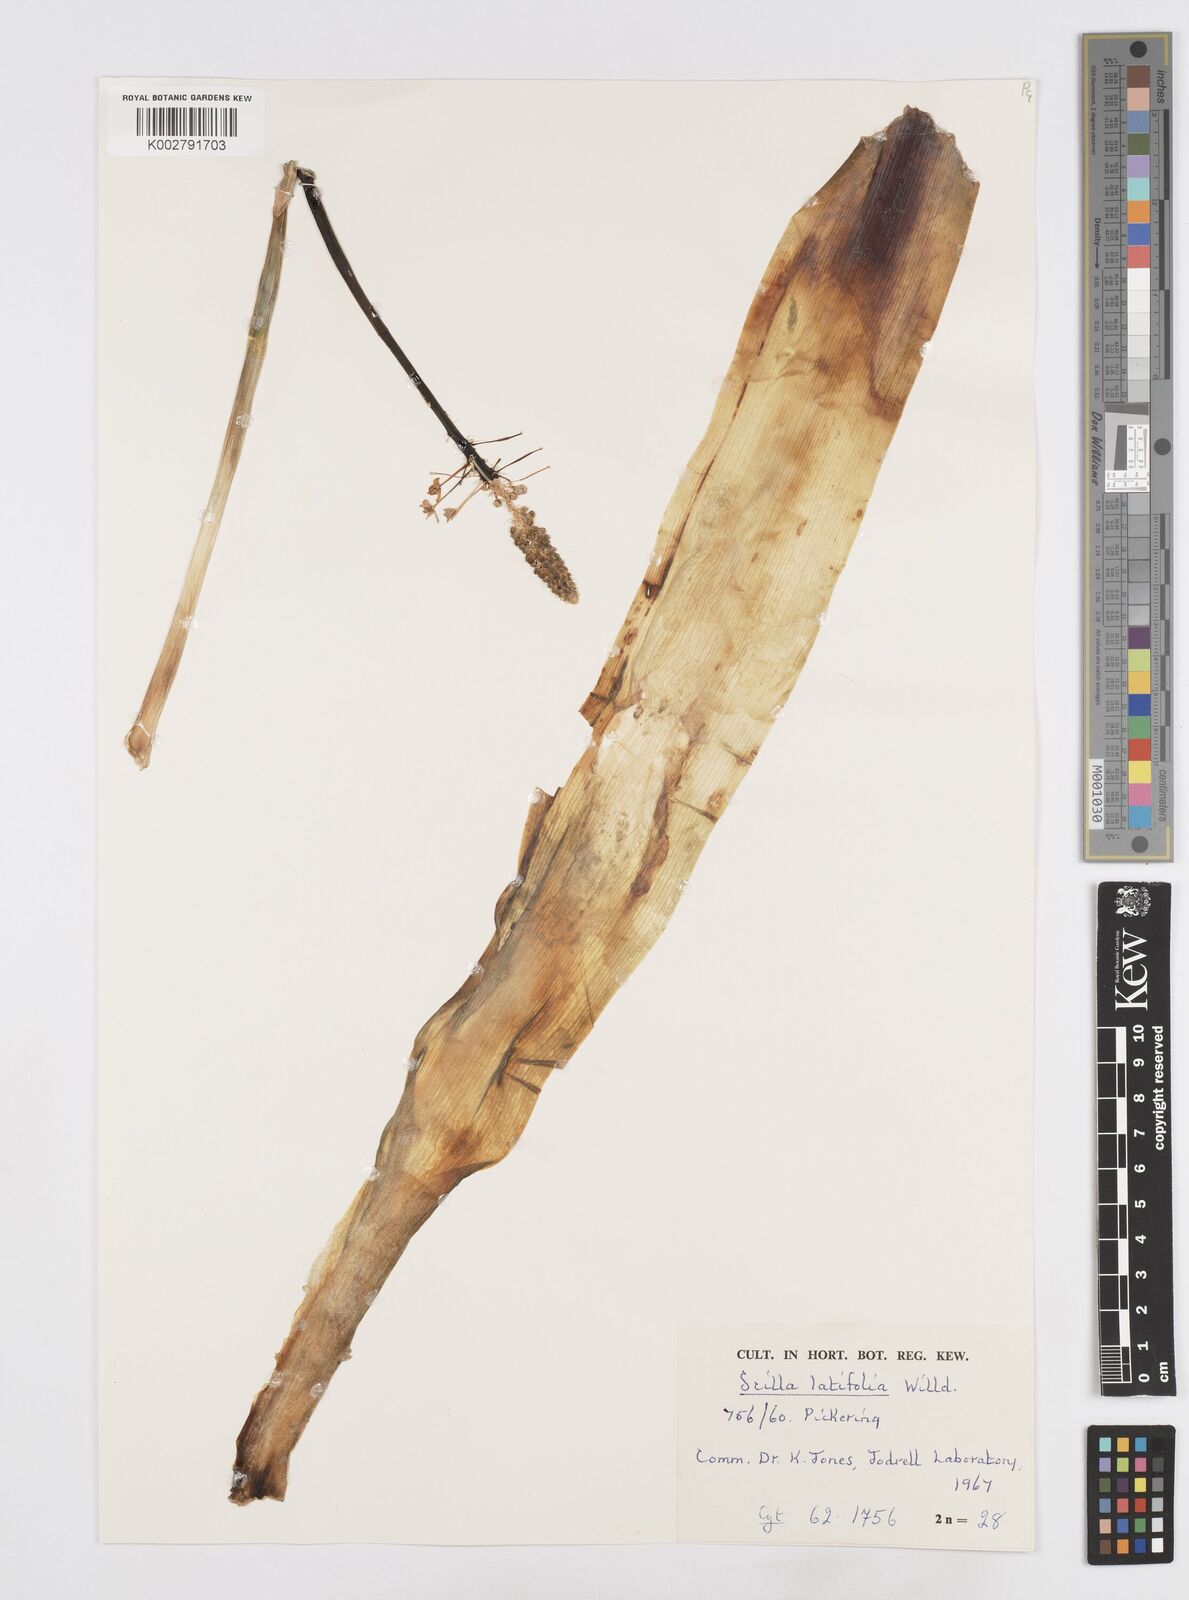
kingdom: Plantae
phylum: Tracheophyta
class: Liliopsida
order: Asparagales
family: Asparagaceae
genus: Scilla
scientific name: Scilla latifolia
